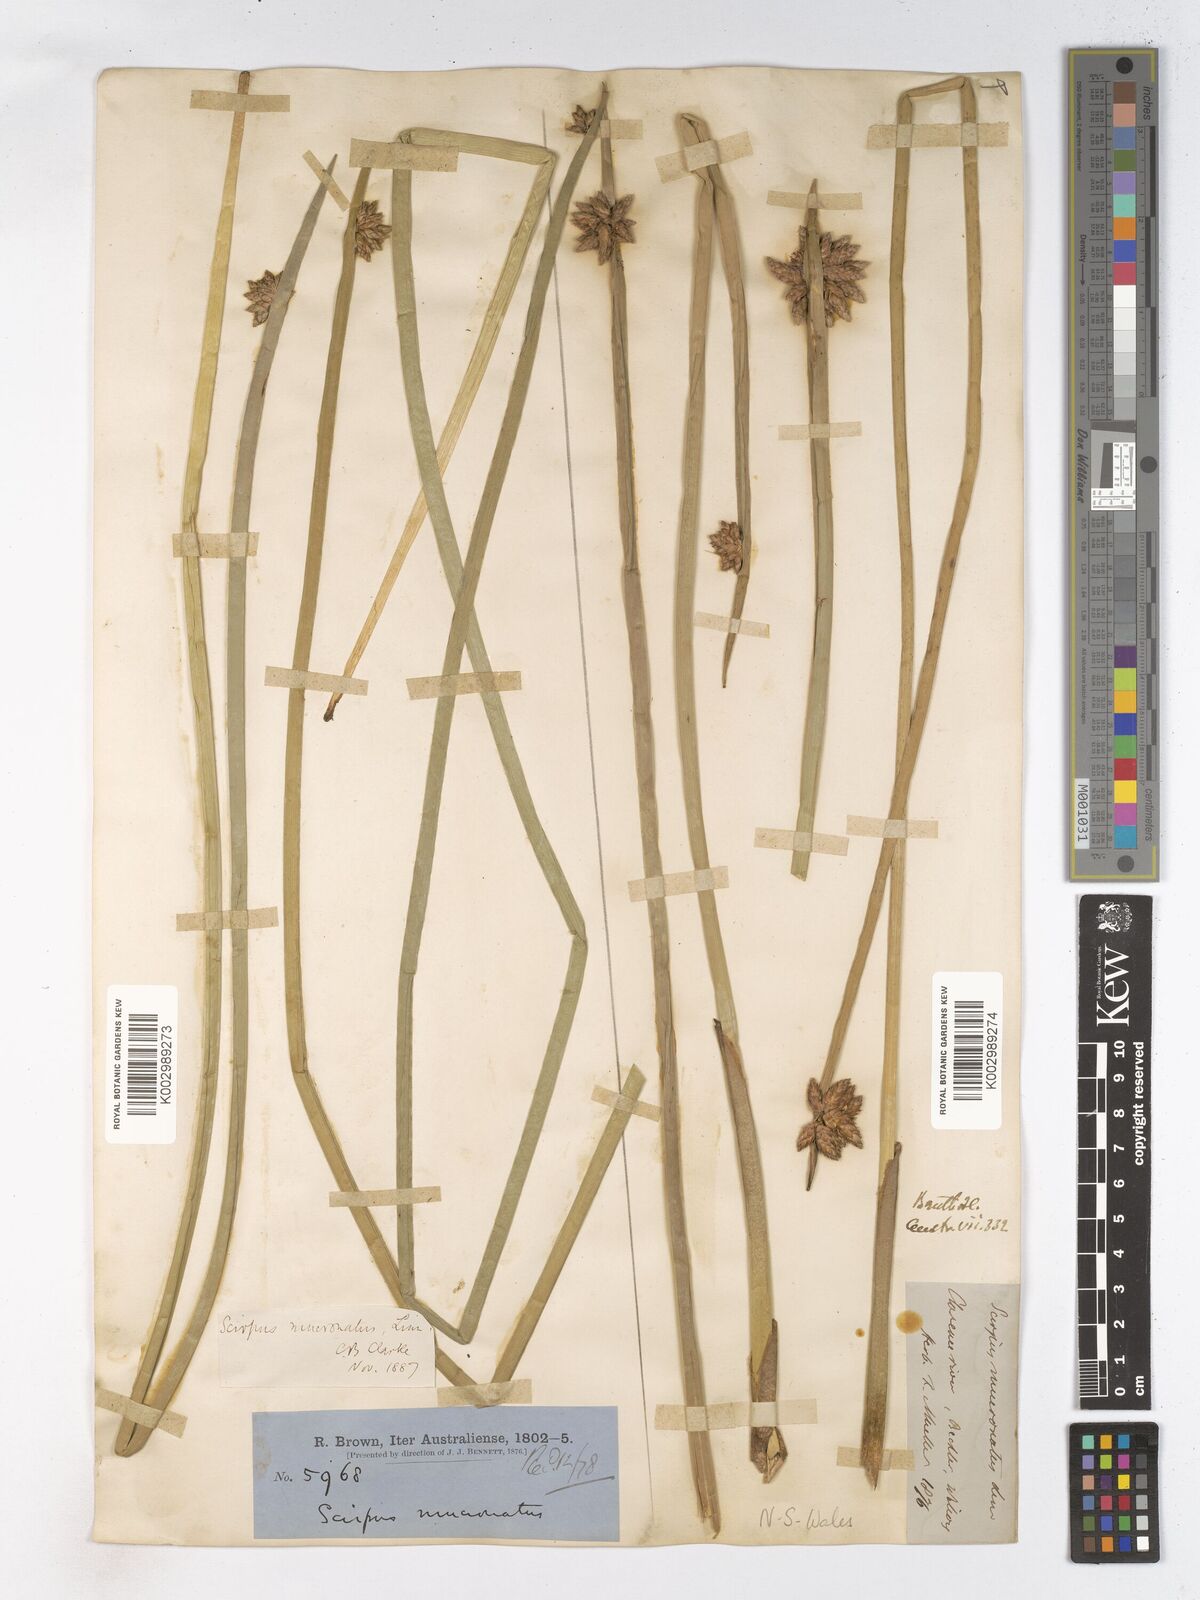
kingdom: Plantae
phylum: Tracheophyta
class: Liliopsida
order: Poales
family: Cyperaceae
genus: Schoenoplectiella
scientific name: Schoenoplectiella mucronata
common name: Bog bulrush
